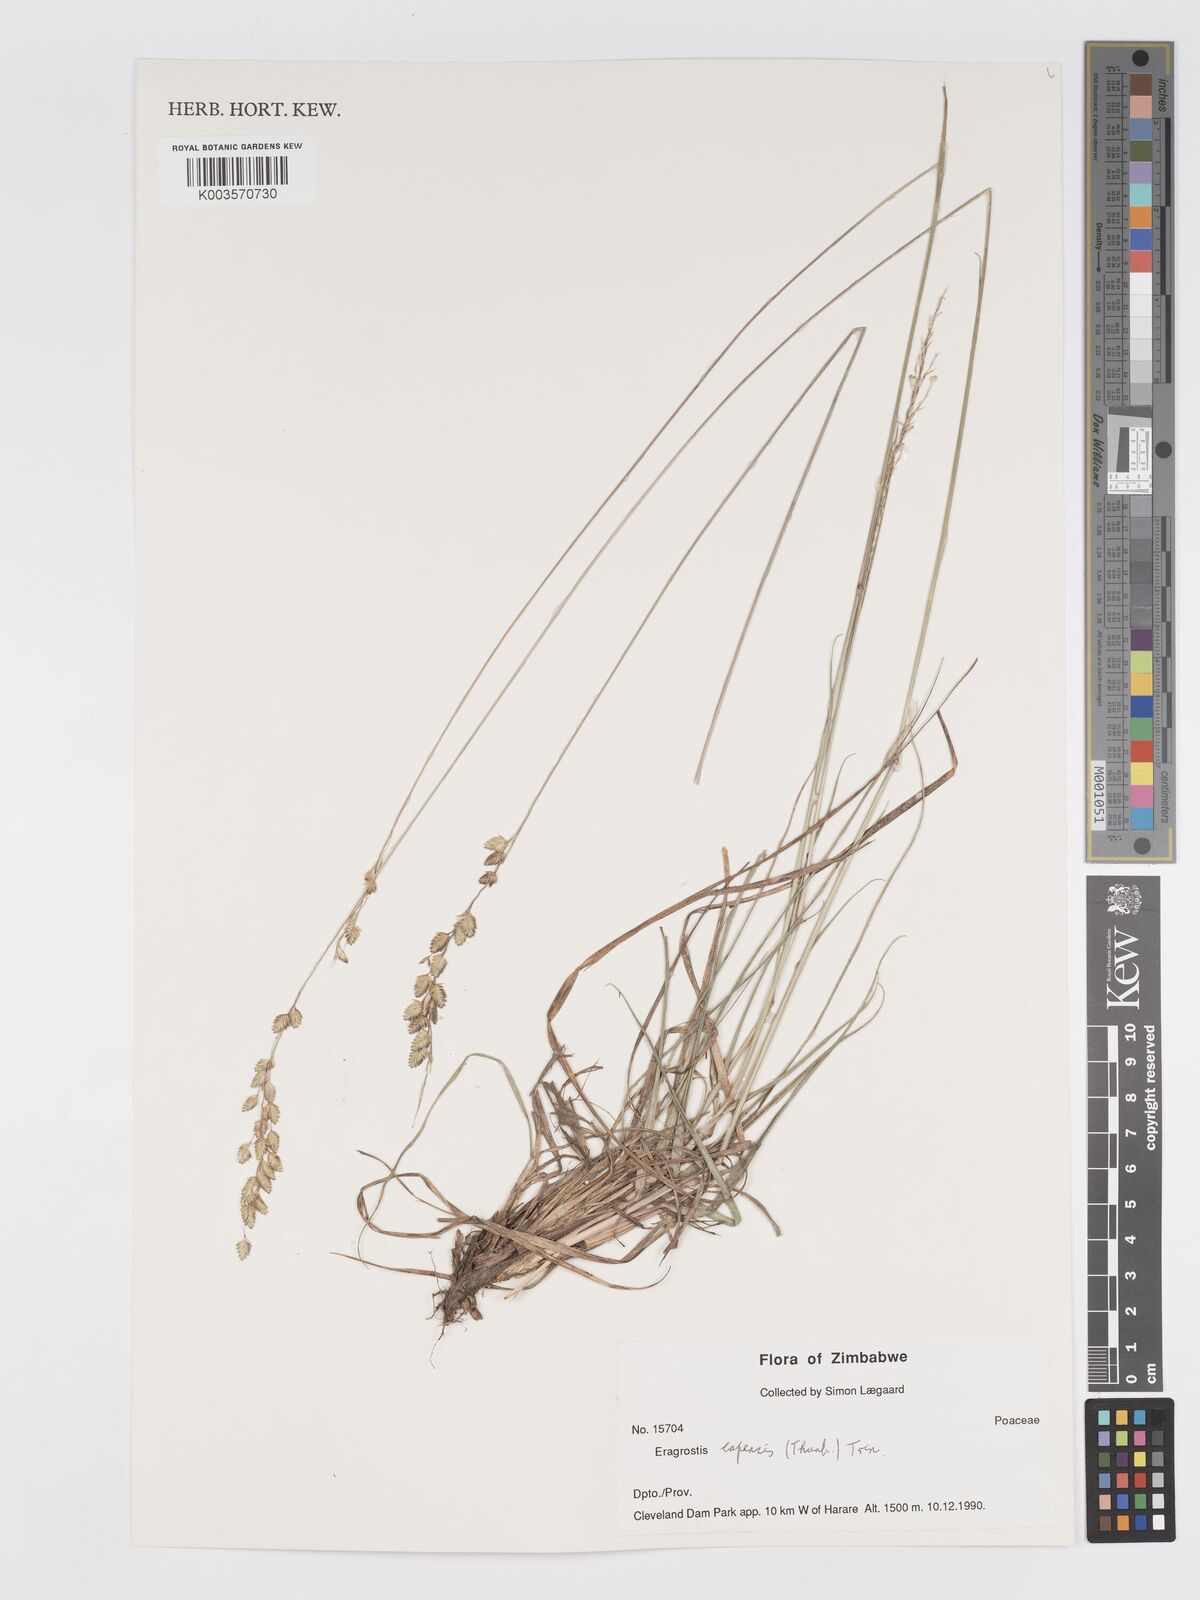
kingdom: Plantae
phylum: Tracheophyta
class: Liliopsida
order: Poales
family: Poaceae
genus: Eragrostis
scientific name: Eragrostis capensis
